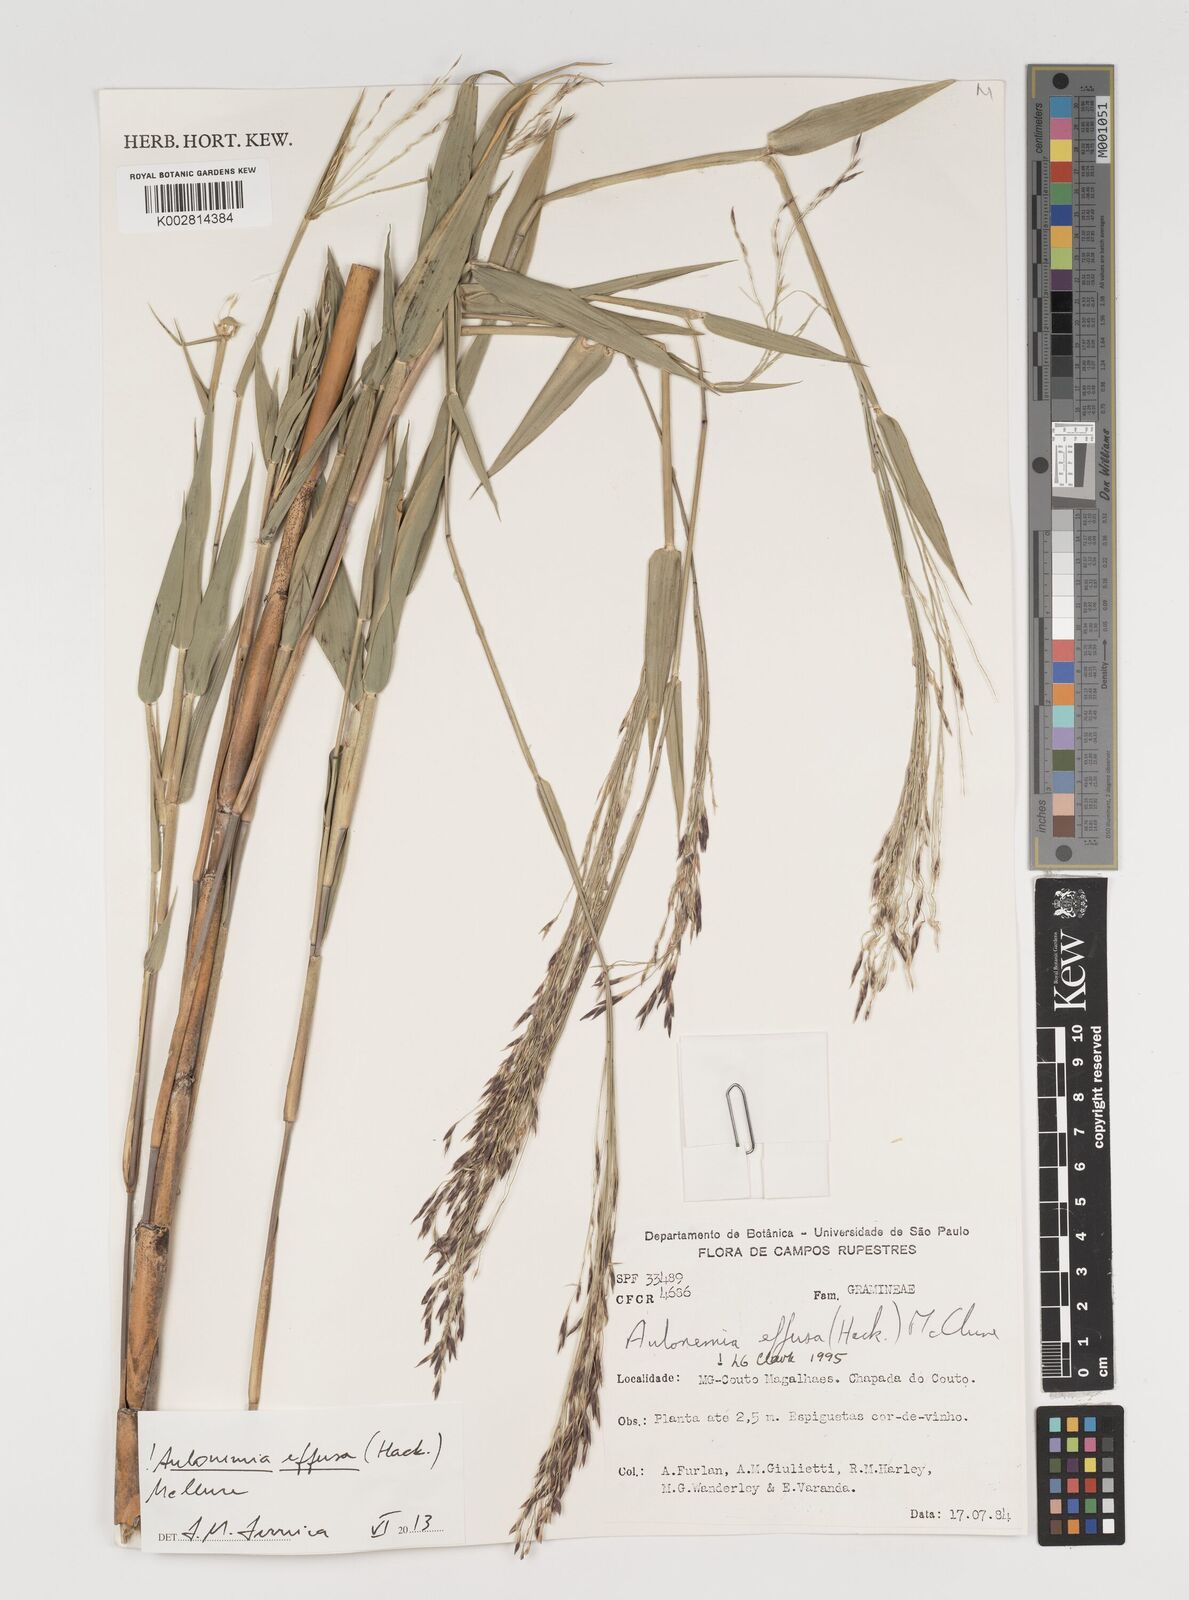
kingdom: Plantae
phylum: Tracheophyta
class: Liliopsida
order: Poales
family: Poaceae
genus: Aulonemia
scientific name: Aulonemia effusa
